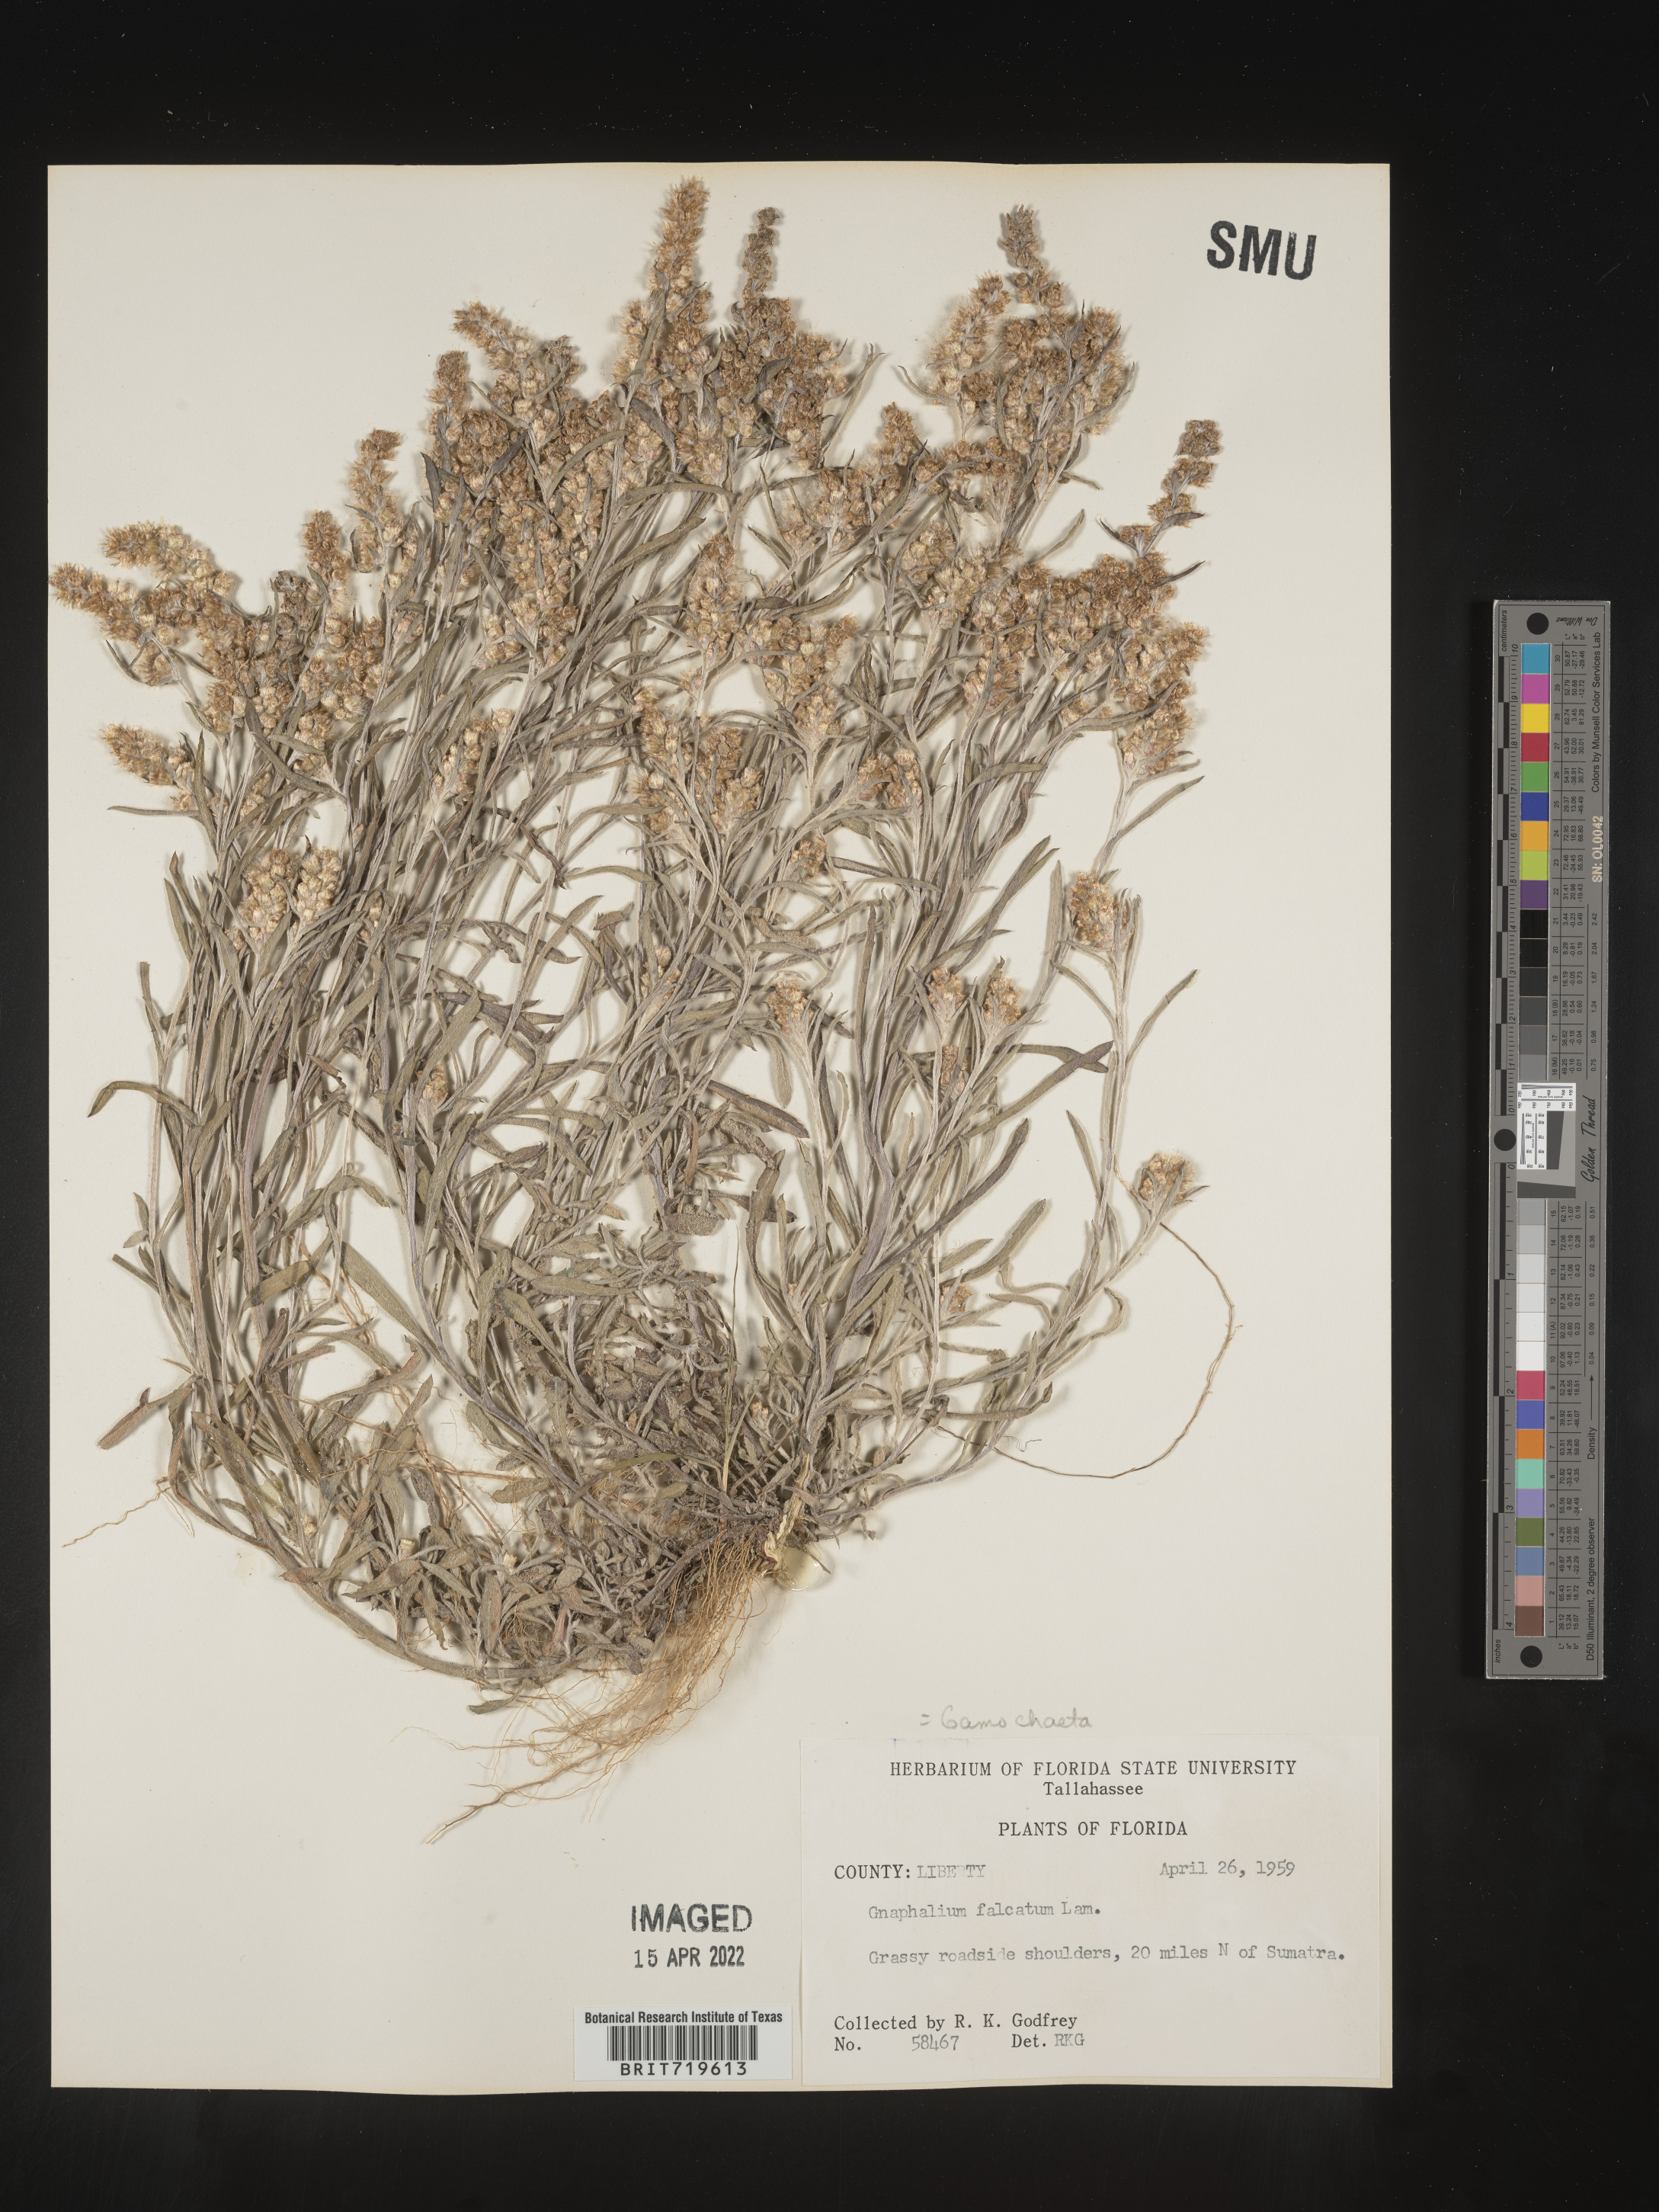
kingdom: Plantae
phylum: Tracheophyta
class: Magnoliopsida
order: Asterales
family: Asteraceae
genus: Gamochaeta
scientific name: Gamochaeta antillana
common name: Delicate everlasting
